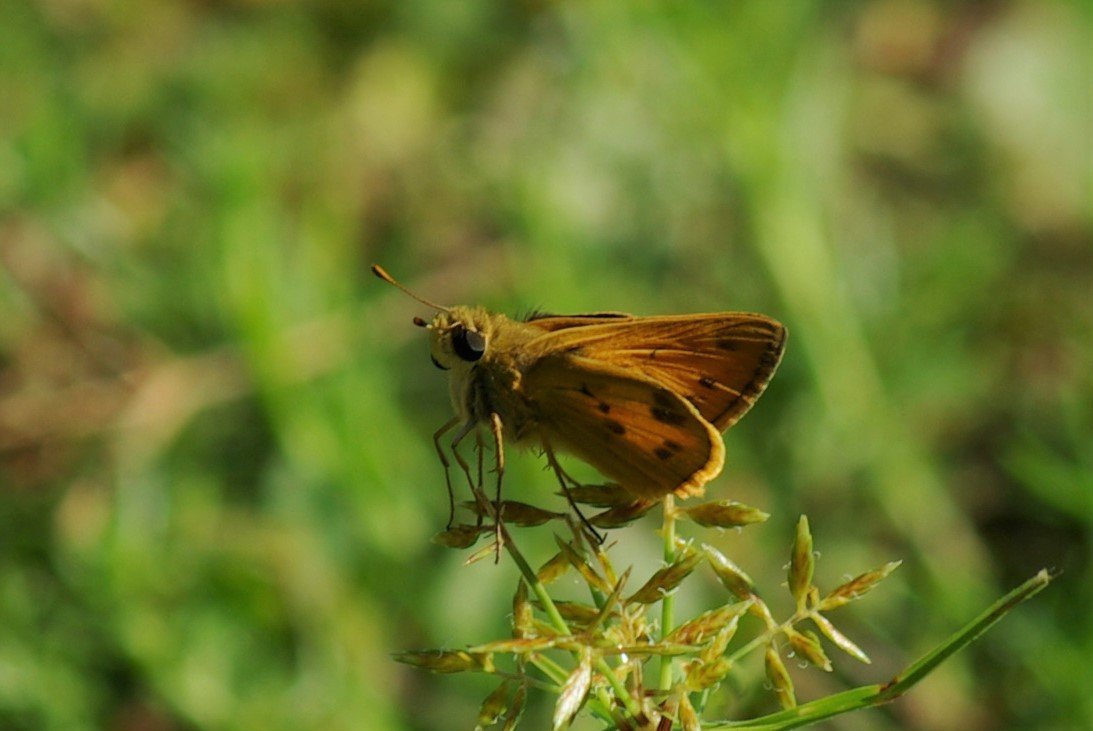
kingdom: Animalia
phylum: Arthropoda
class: Insecta
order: Lepidoptera
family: Hesperiidae
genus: Polites
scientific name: Polites vibex
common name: Whirlabout
